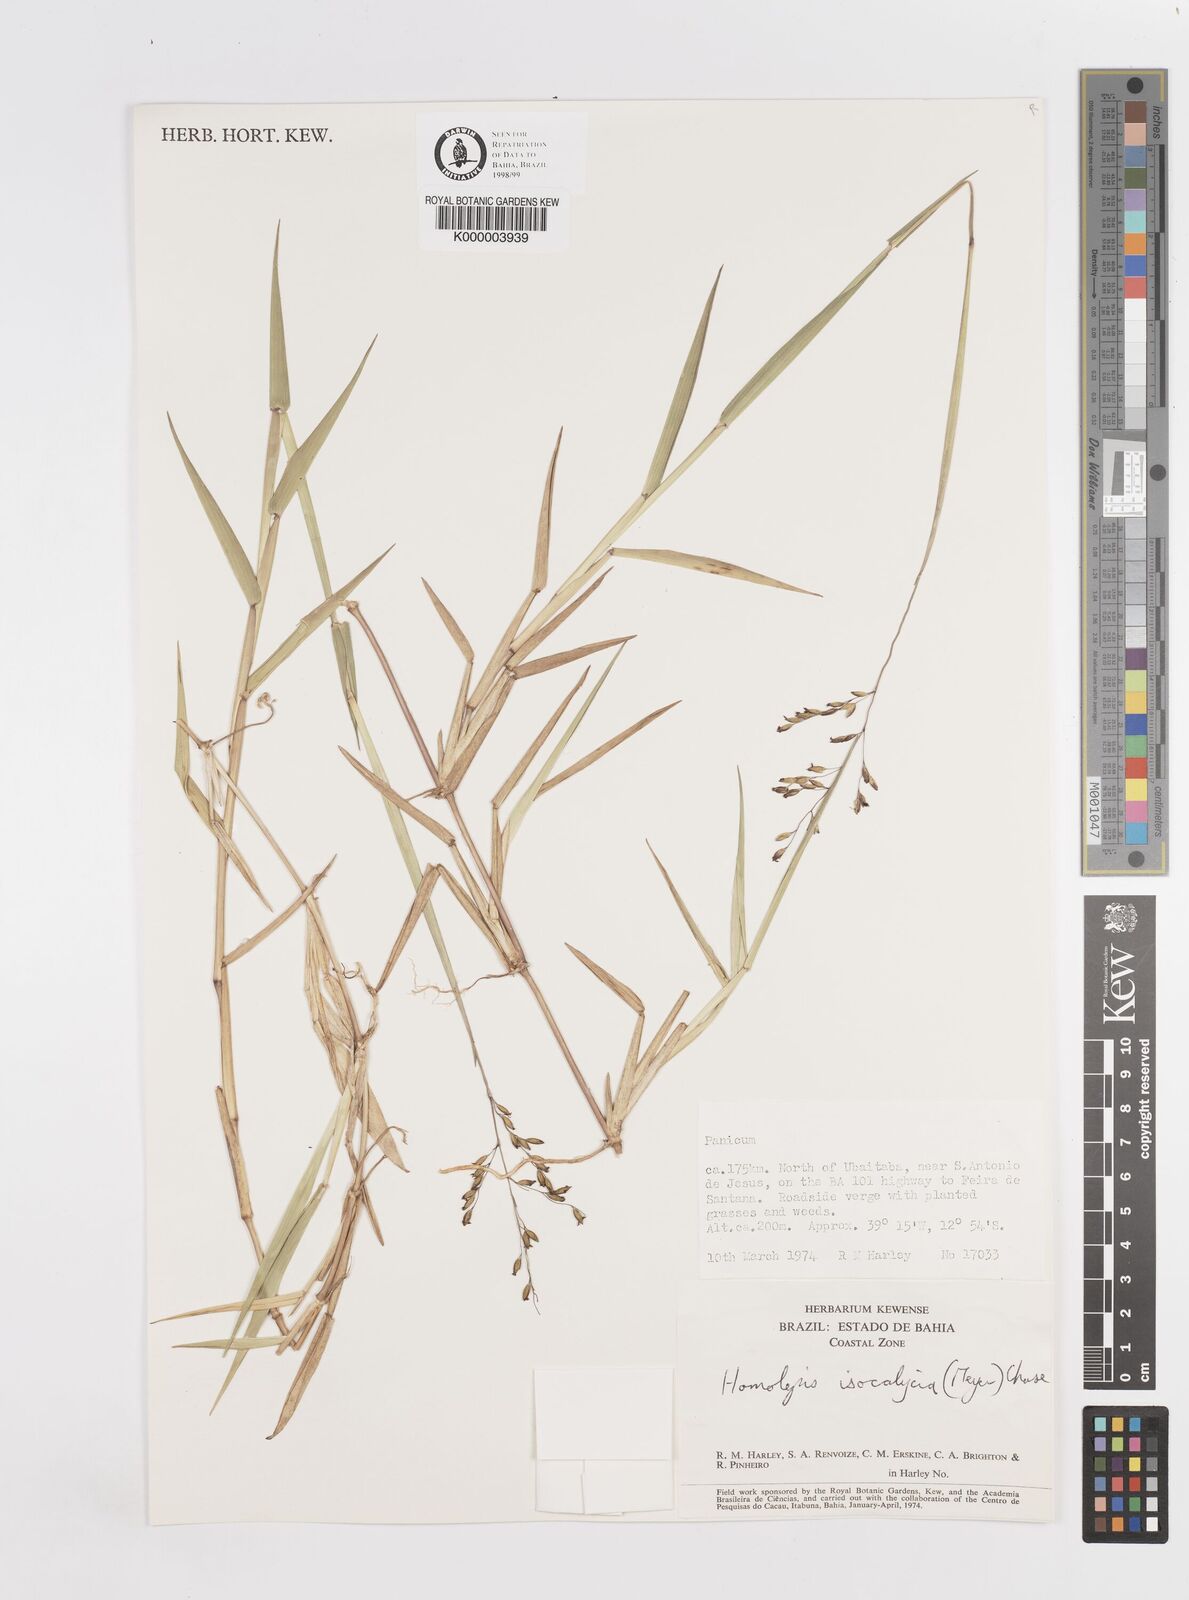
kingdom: Plantae
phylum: Tracheophyta
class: Liliopsida
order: Poales
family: Poaceae
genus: Homolepis
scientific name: Homolepis
